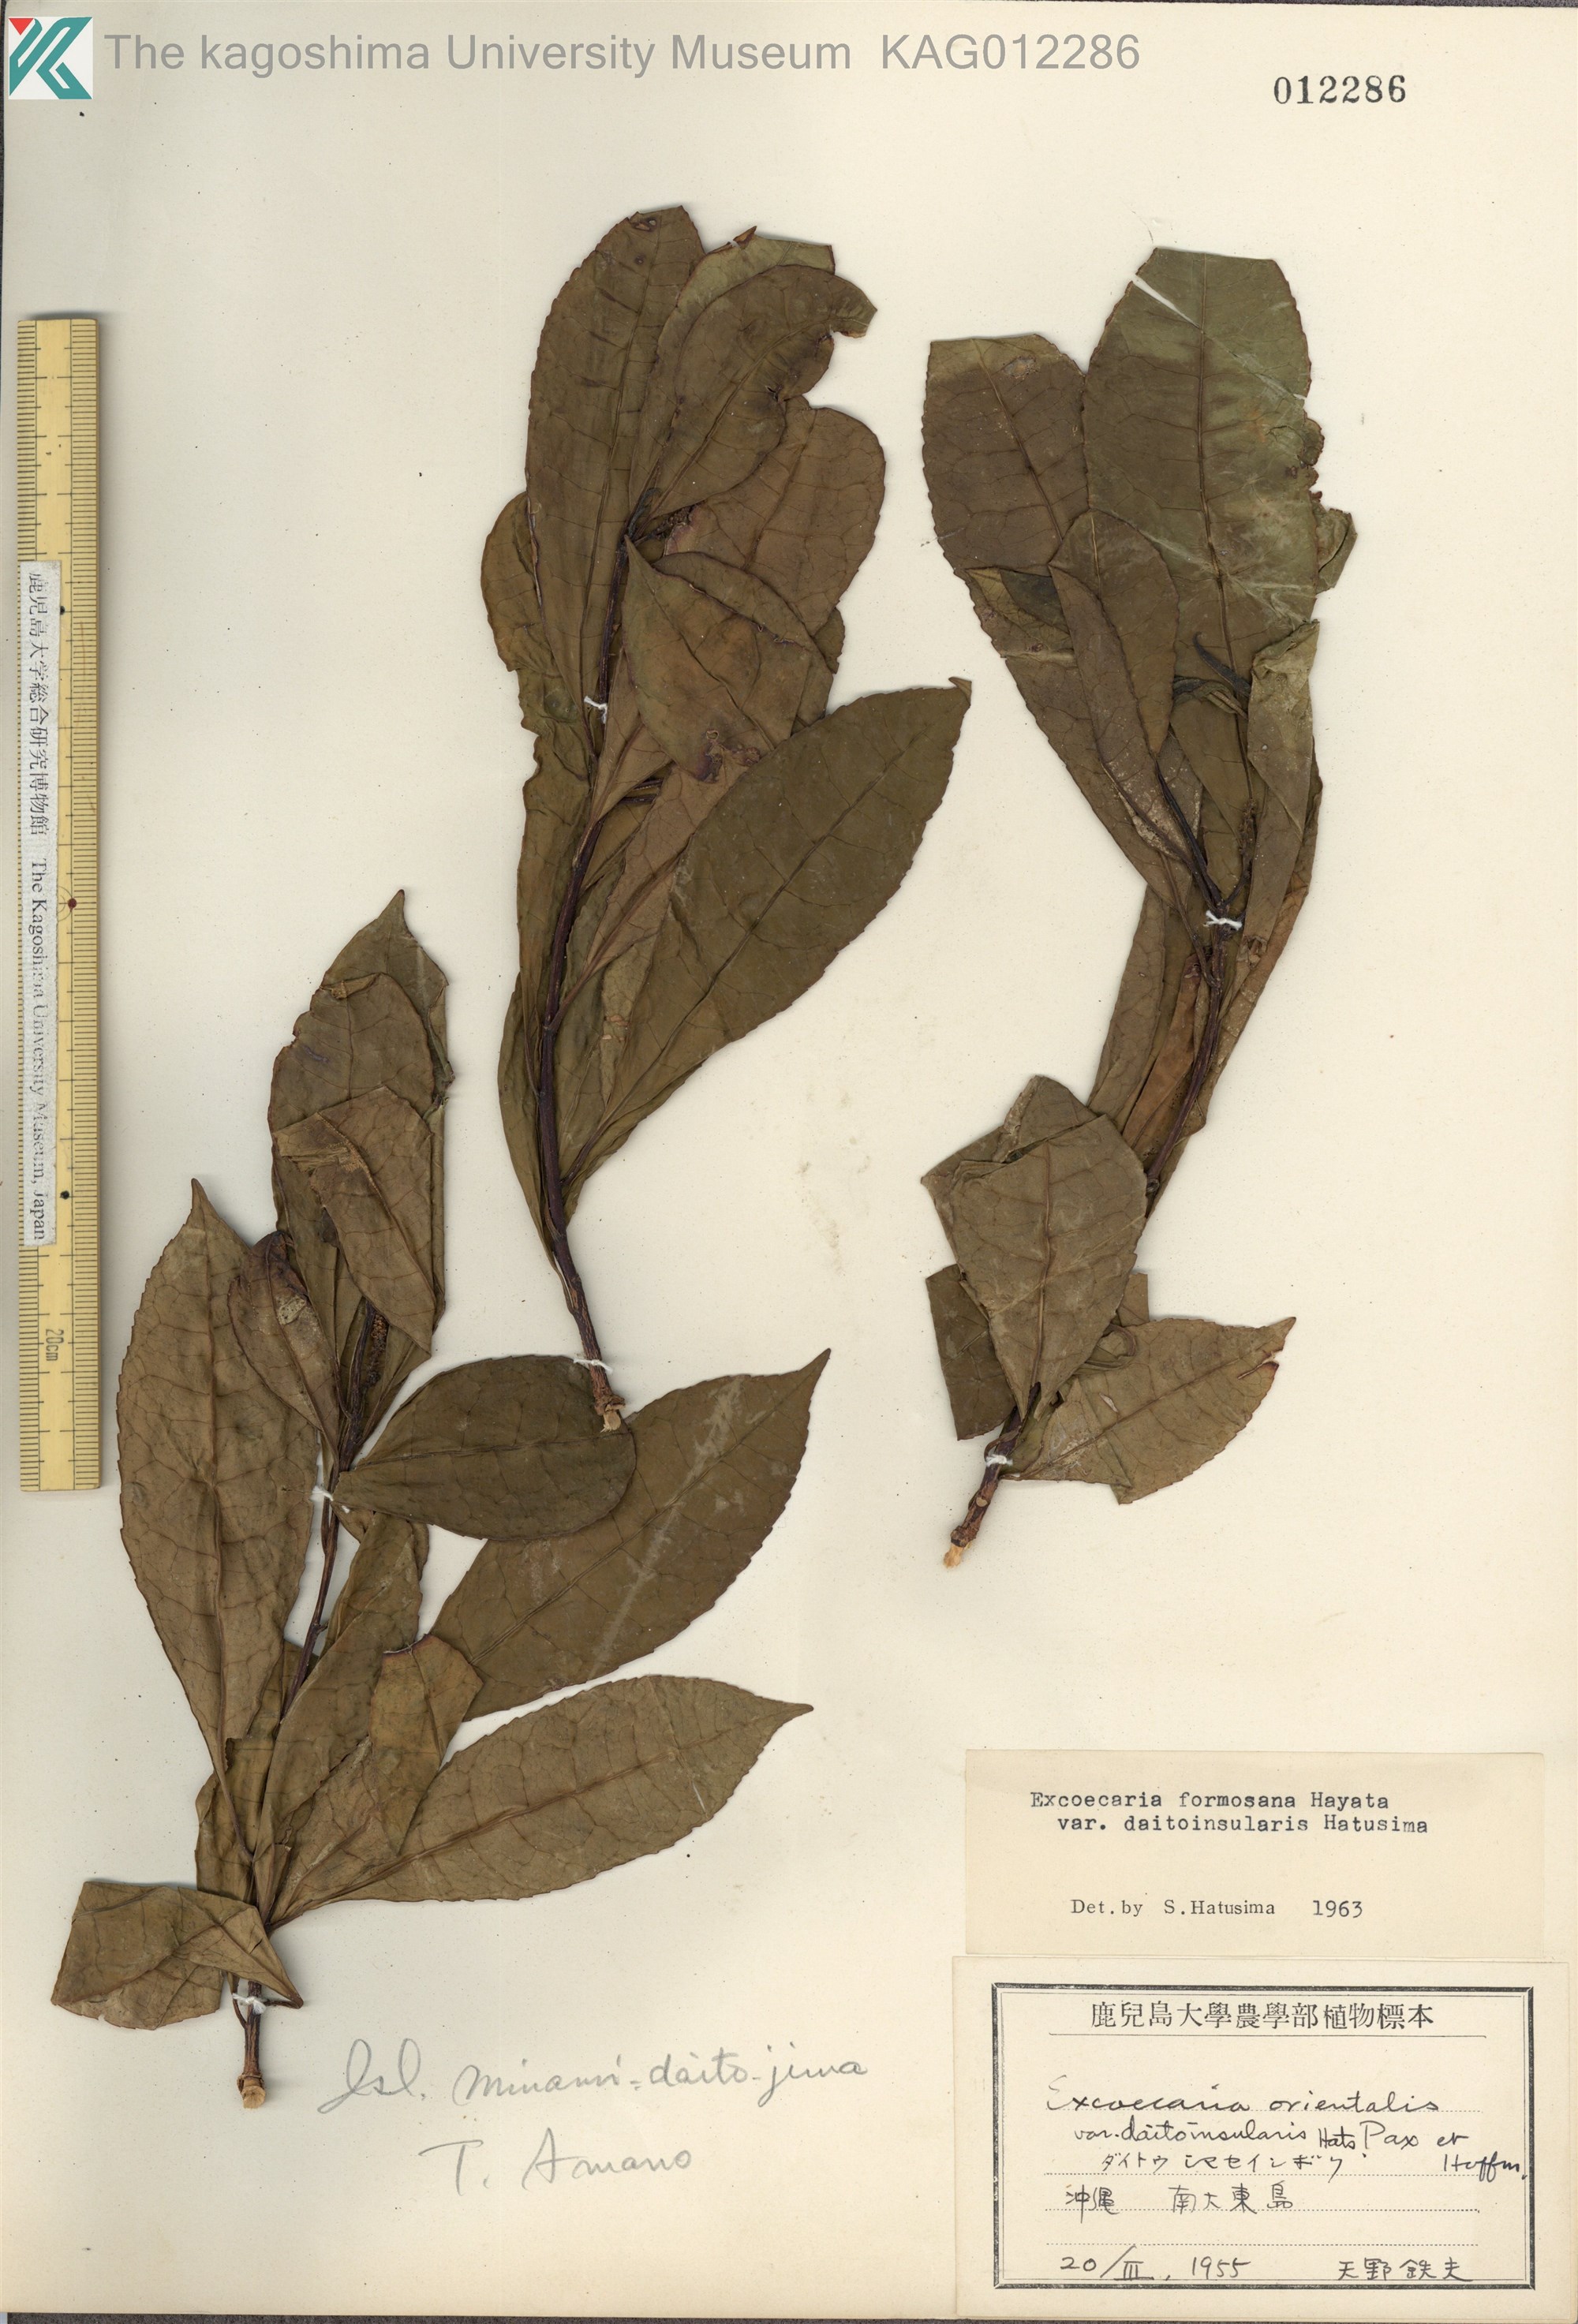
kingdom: Plantae
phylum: Tracheophyta
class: Magnoliopsida
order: Malpighiales
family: Euphorbiaceae
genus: Excoecaria
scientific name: Excoecaria formosana
